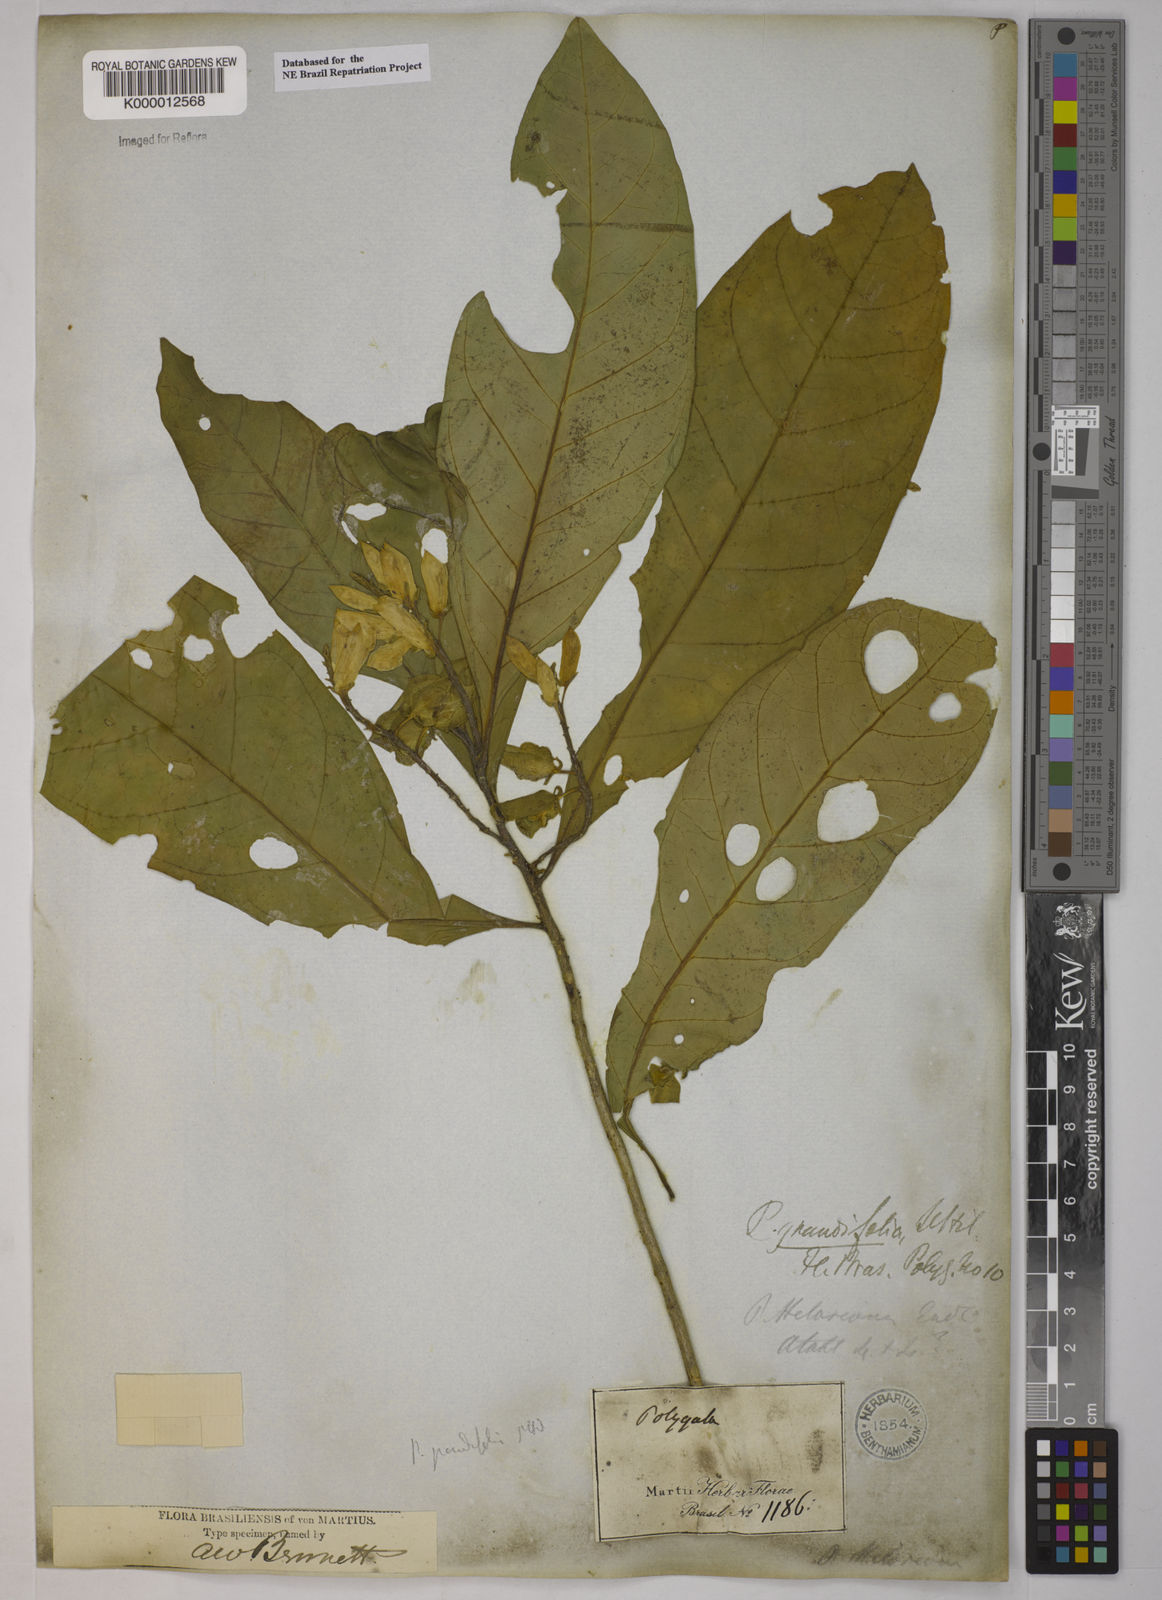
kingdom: Plantae
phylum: Tracheophyta
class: Magnoliopsida
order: Fabales
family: Polygalaceae
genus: Caamembeca
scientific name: Caamembeca grandifolia
